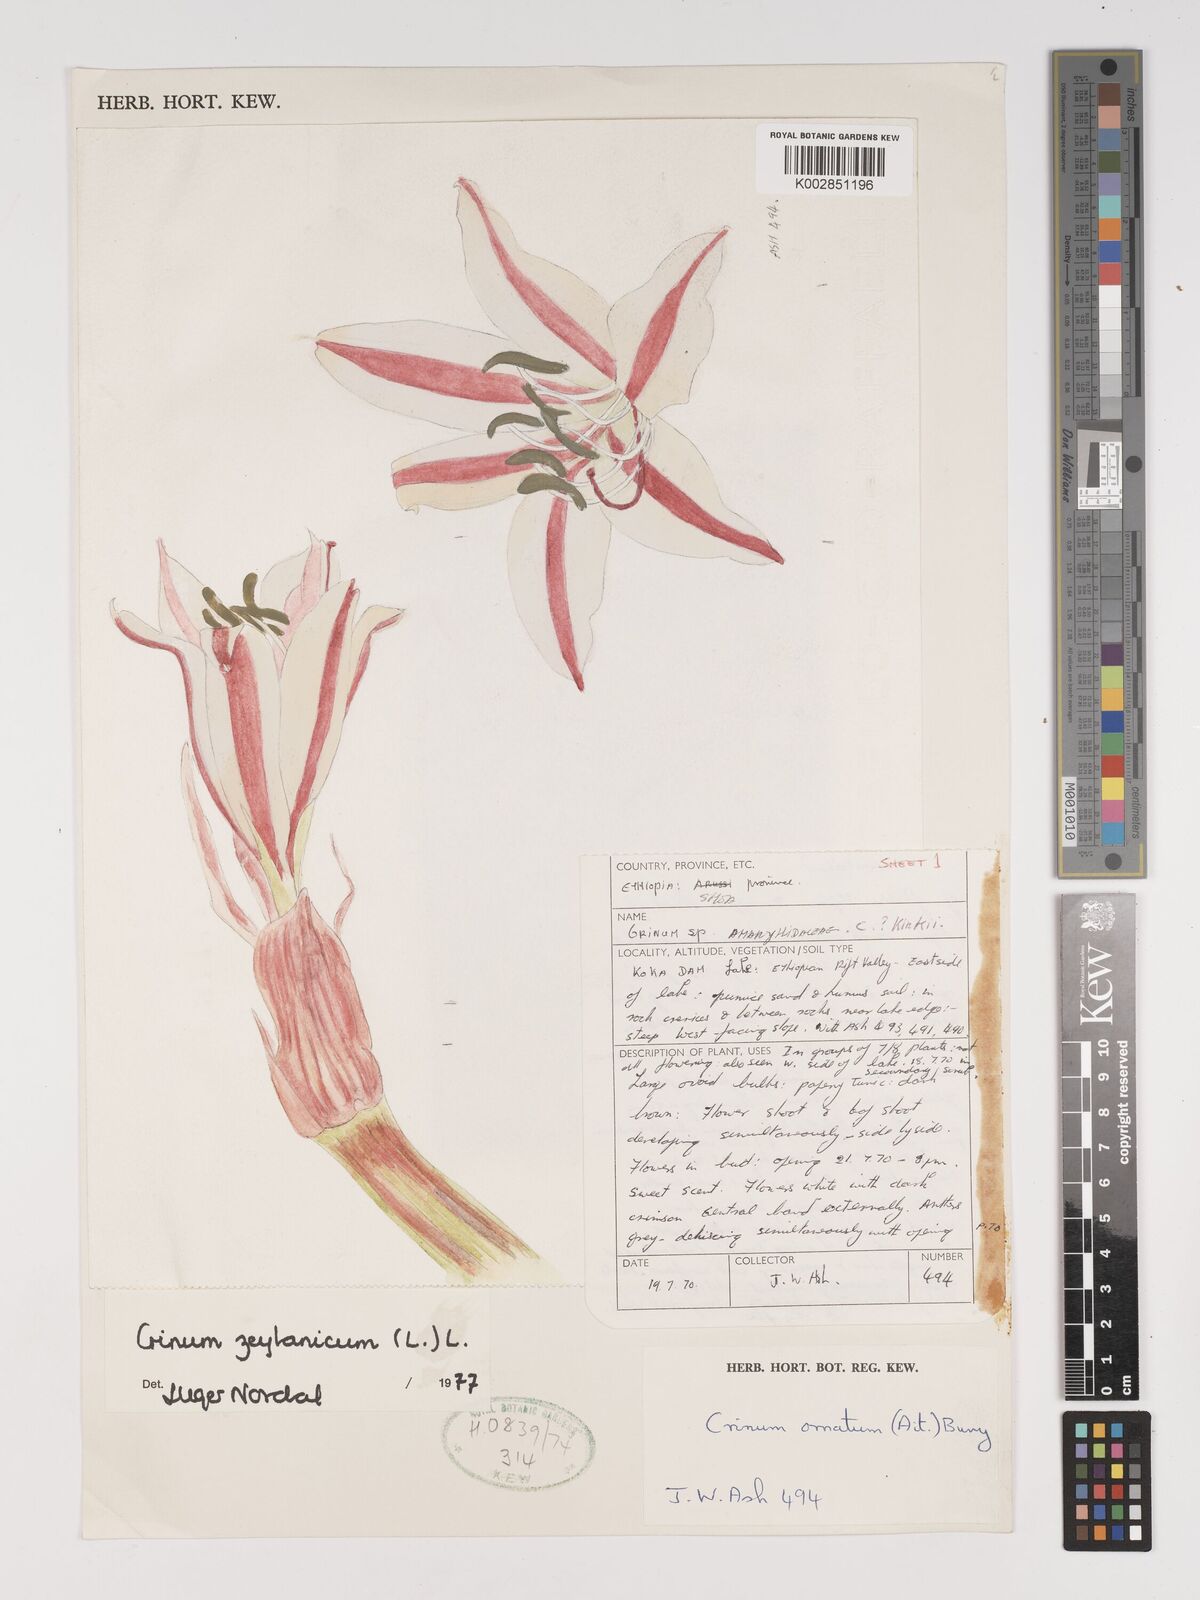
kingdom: Plantae
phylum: Tracheophyta
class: Liliopsida
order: Asparagales
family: Amaryllidaceae
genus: Crinum
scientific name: Crinum zeylanicum
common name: Ceylon swamplily
